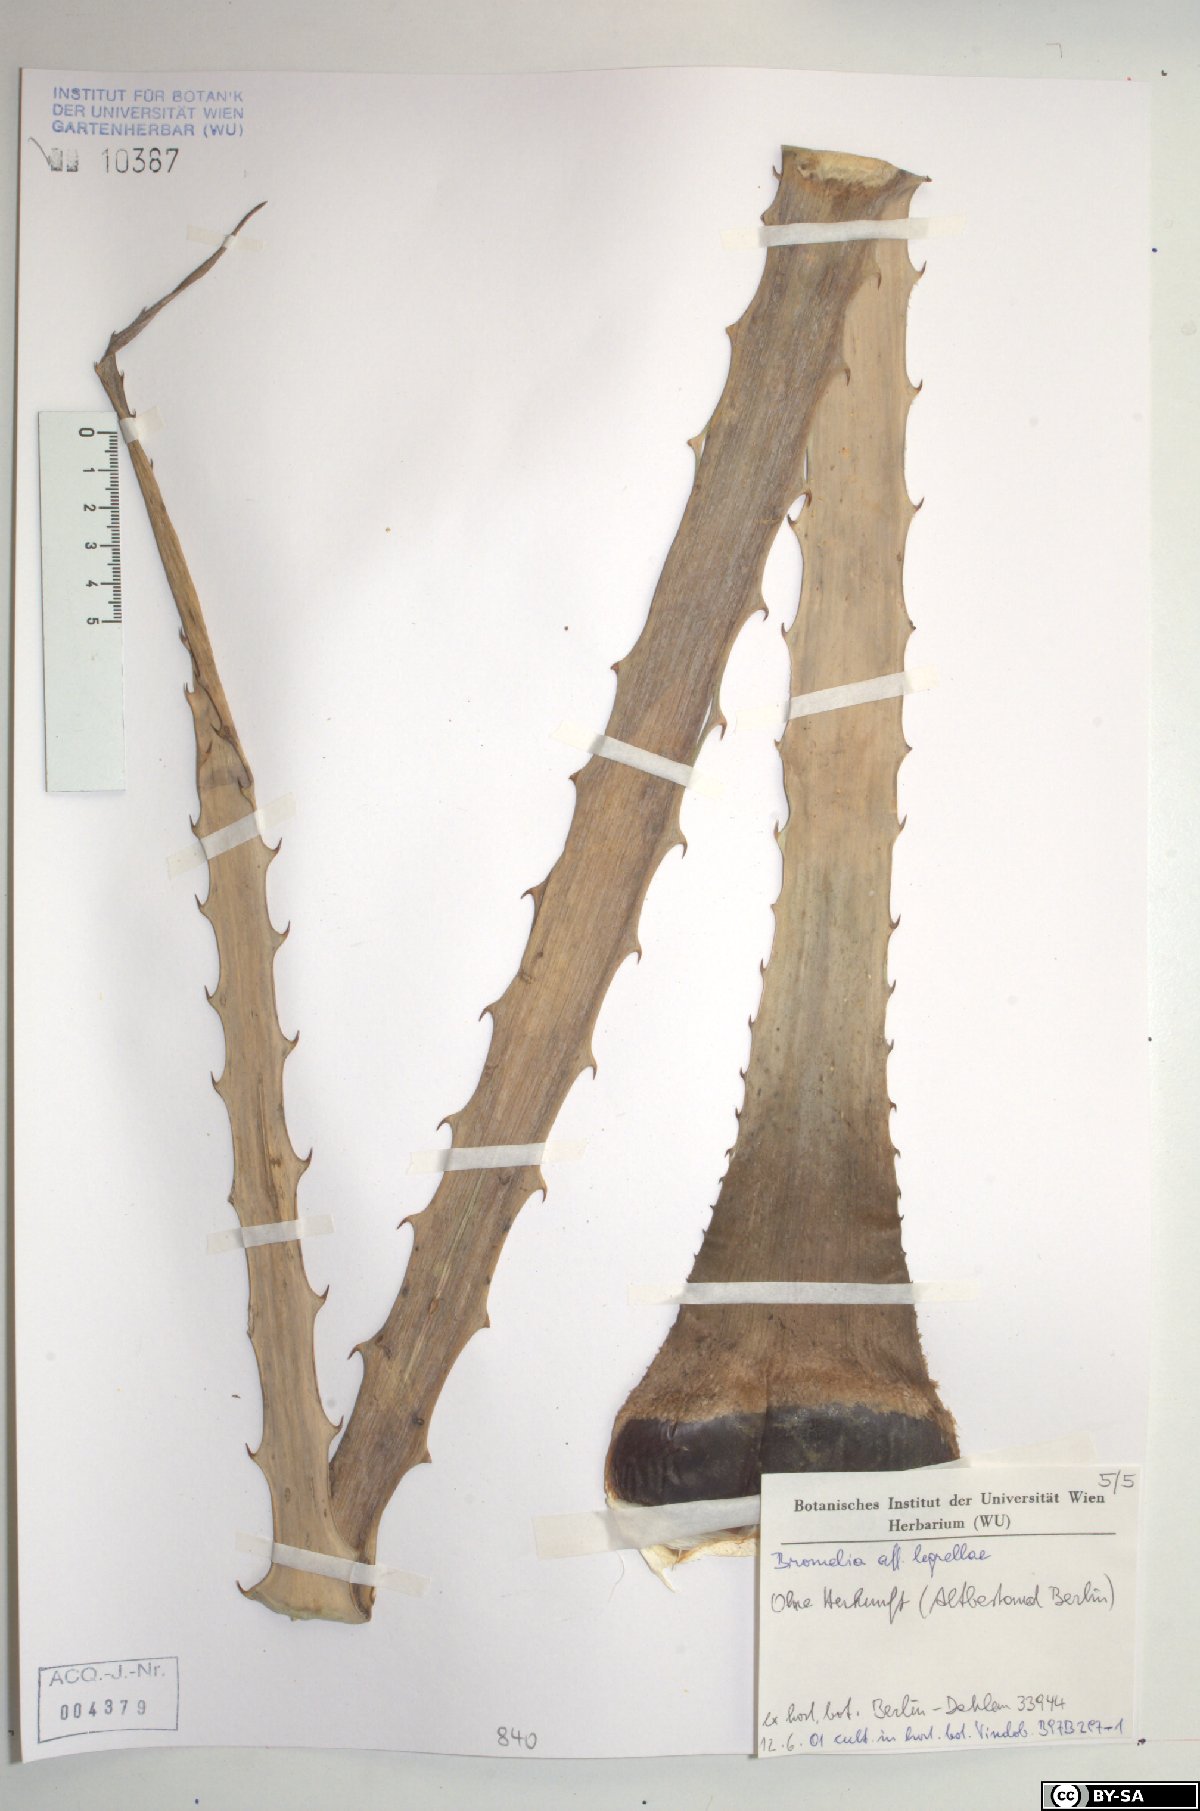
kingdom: Plantae
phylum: Tracheophyta
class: Liliopsida
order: Poales
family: Bromeliaceae
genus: Bromelia
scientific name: Bromelia legrellae
